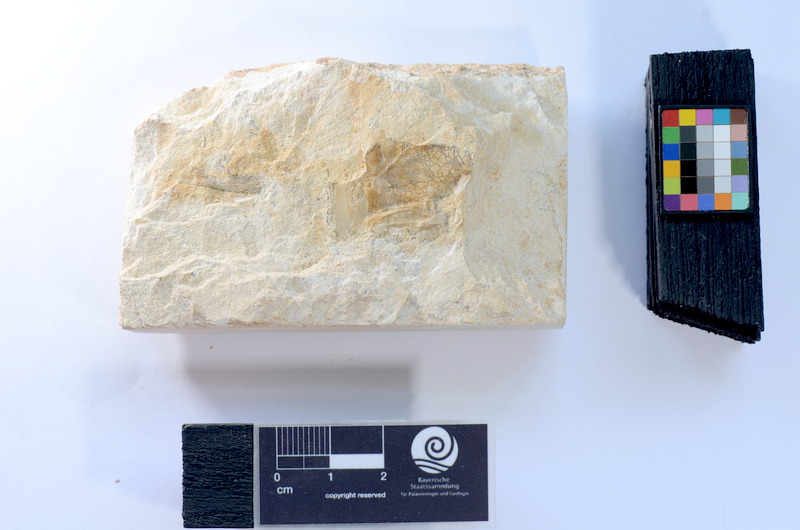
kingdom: Animalia
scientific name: Animalia
